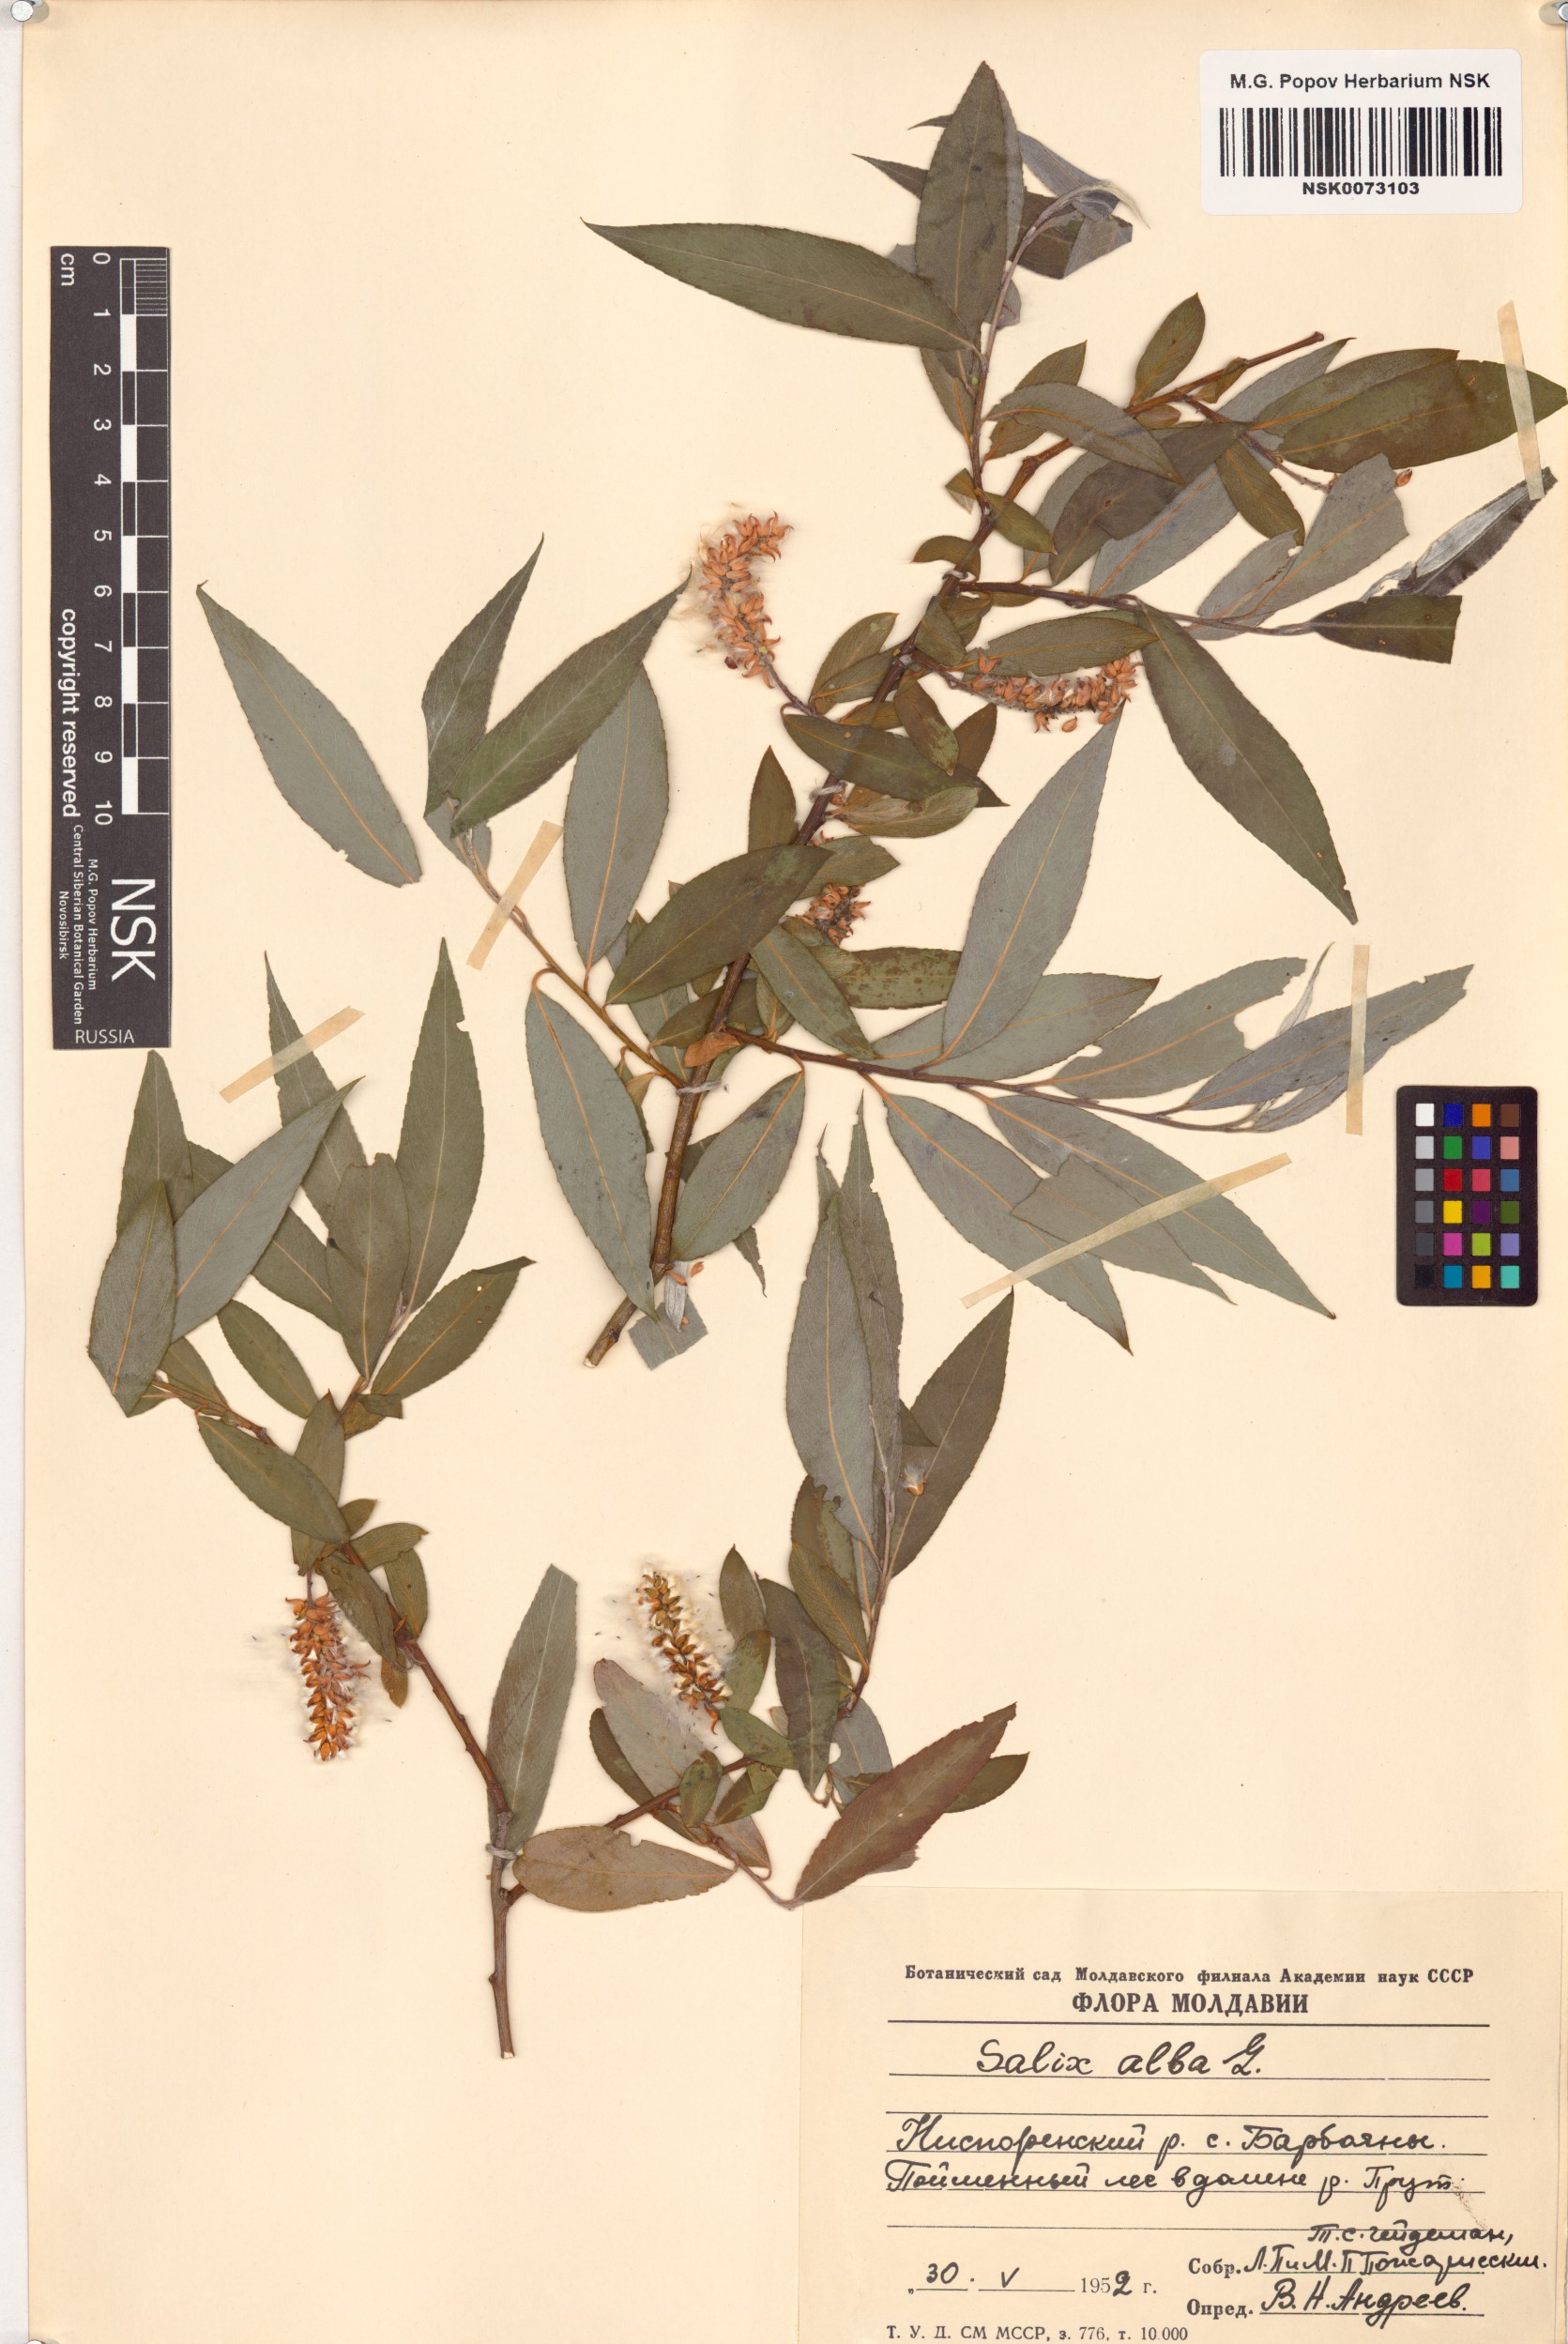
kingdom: Plantae
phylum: Tracheophyta
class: Magnoliopsida
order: Malpighiales
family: Salicaceae
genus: Salix
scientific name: Salix alba
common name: White willow
